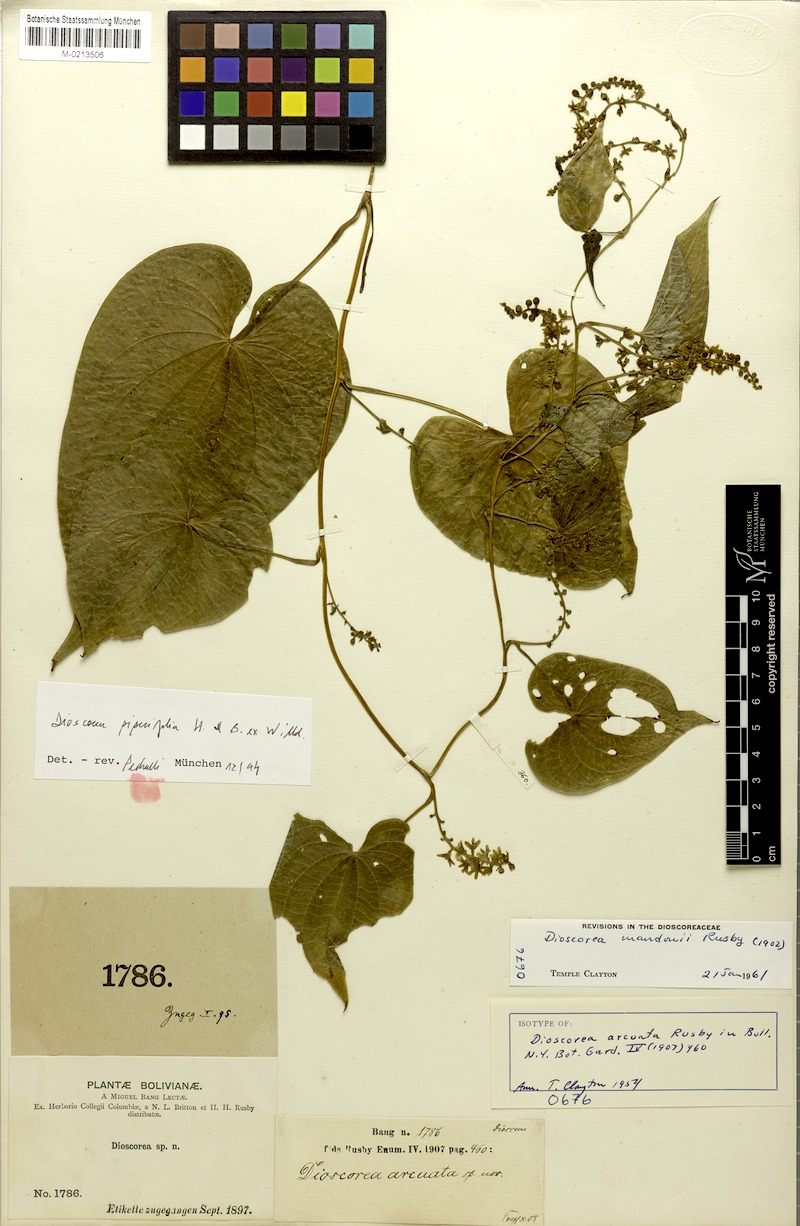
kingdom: Plantae
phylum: Tracheophyta
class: Liliopsida
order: Dioscoreales
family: Dioscoreaceae
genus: Dioscorea
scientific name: Dioscorea piperifolia
